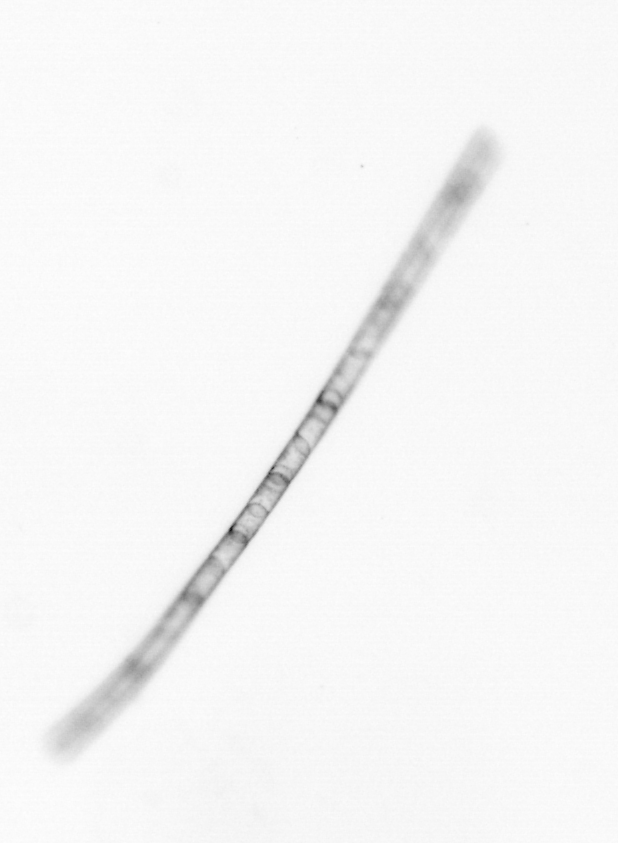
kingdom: Chromista
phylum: Ochrophyta
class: Bacillariophyceae
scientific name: Bacillariophyceae
